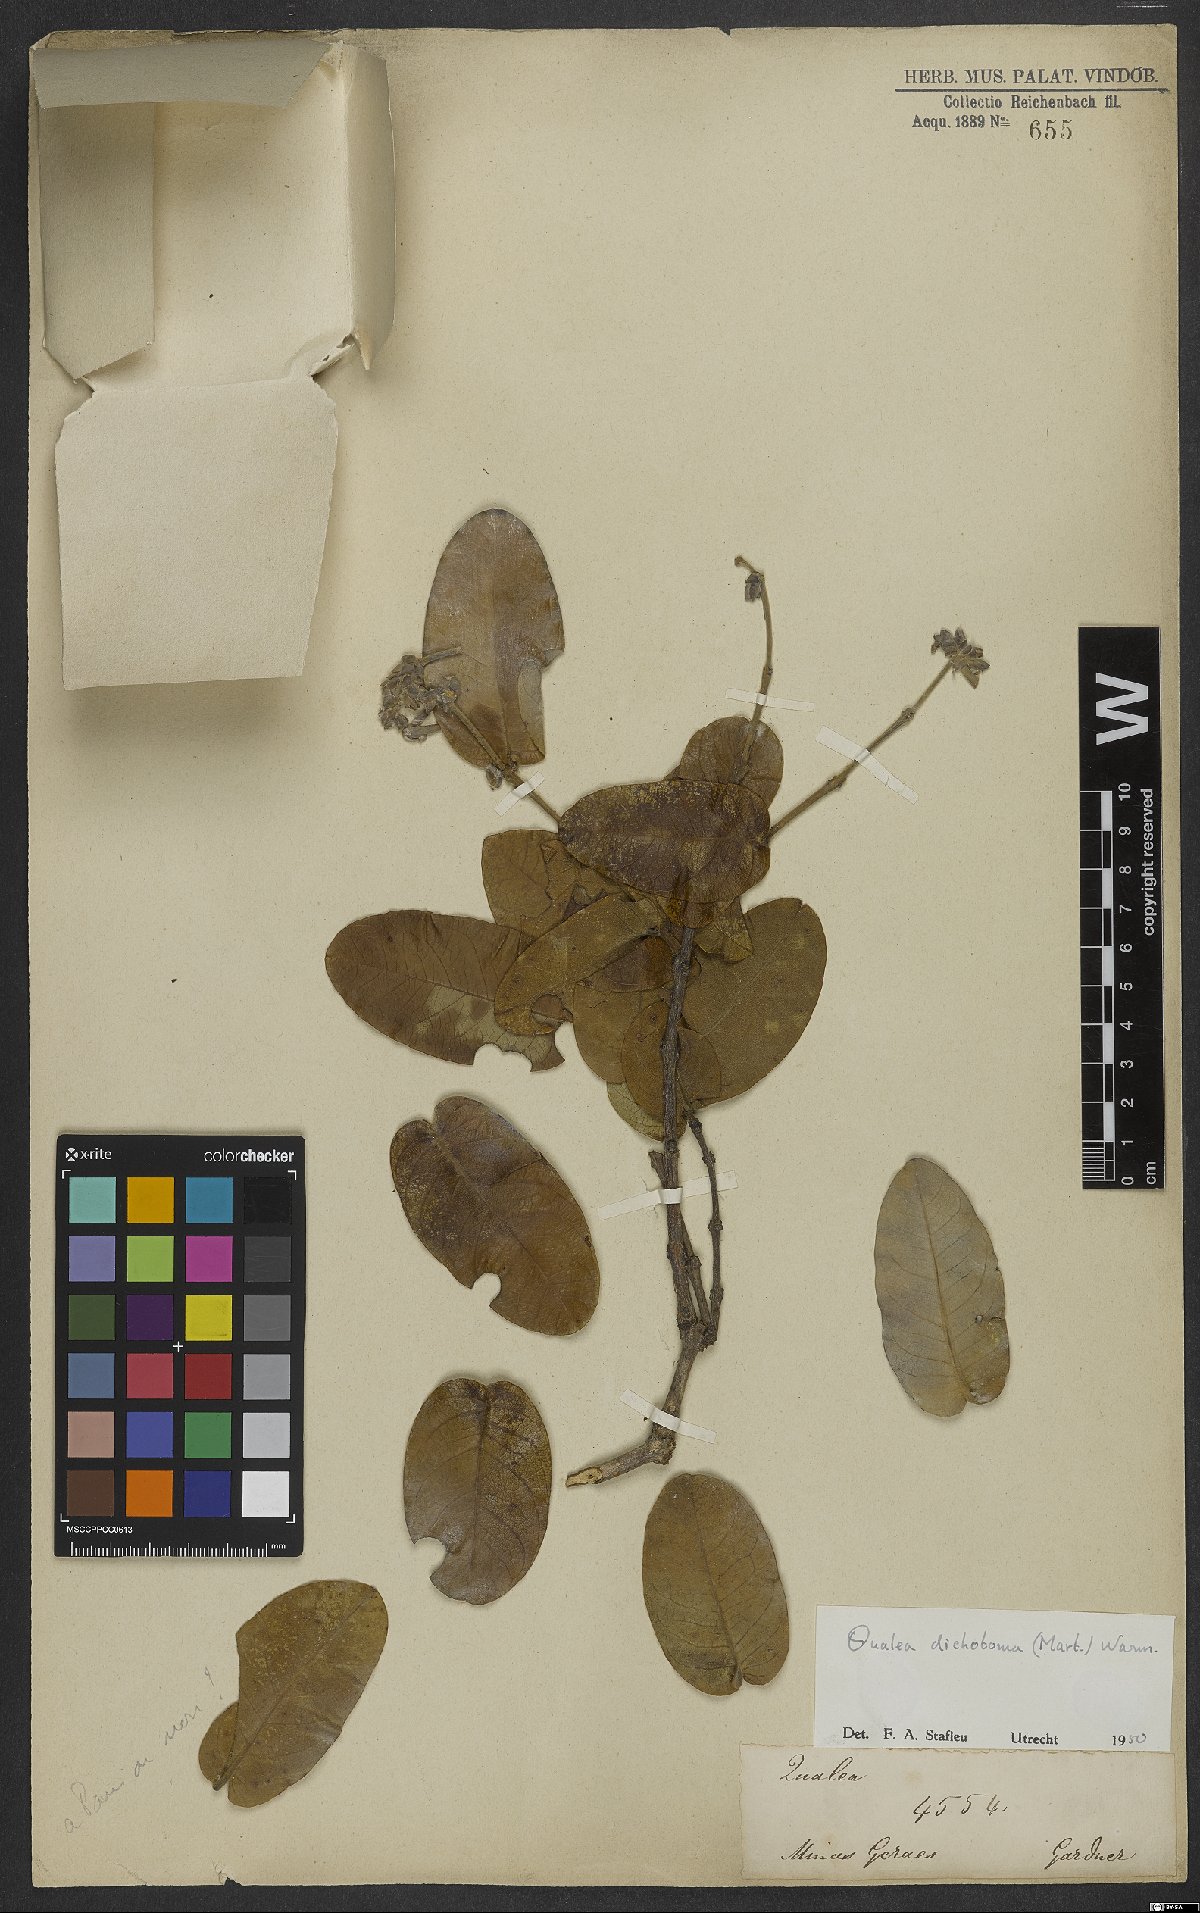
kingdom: Plantae
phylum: Tracheophyta
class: Magnoliopsida
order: Myrtales
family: Vochysiaceae
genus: Qualea
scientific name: Qualea cordata
